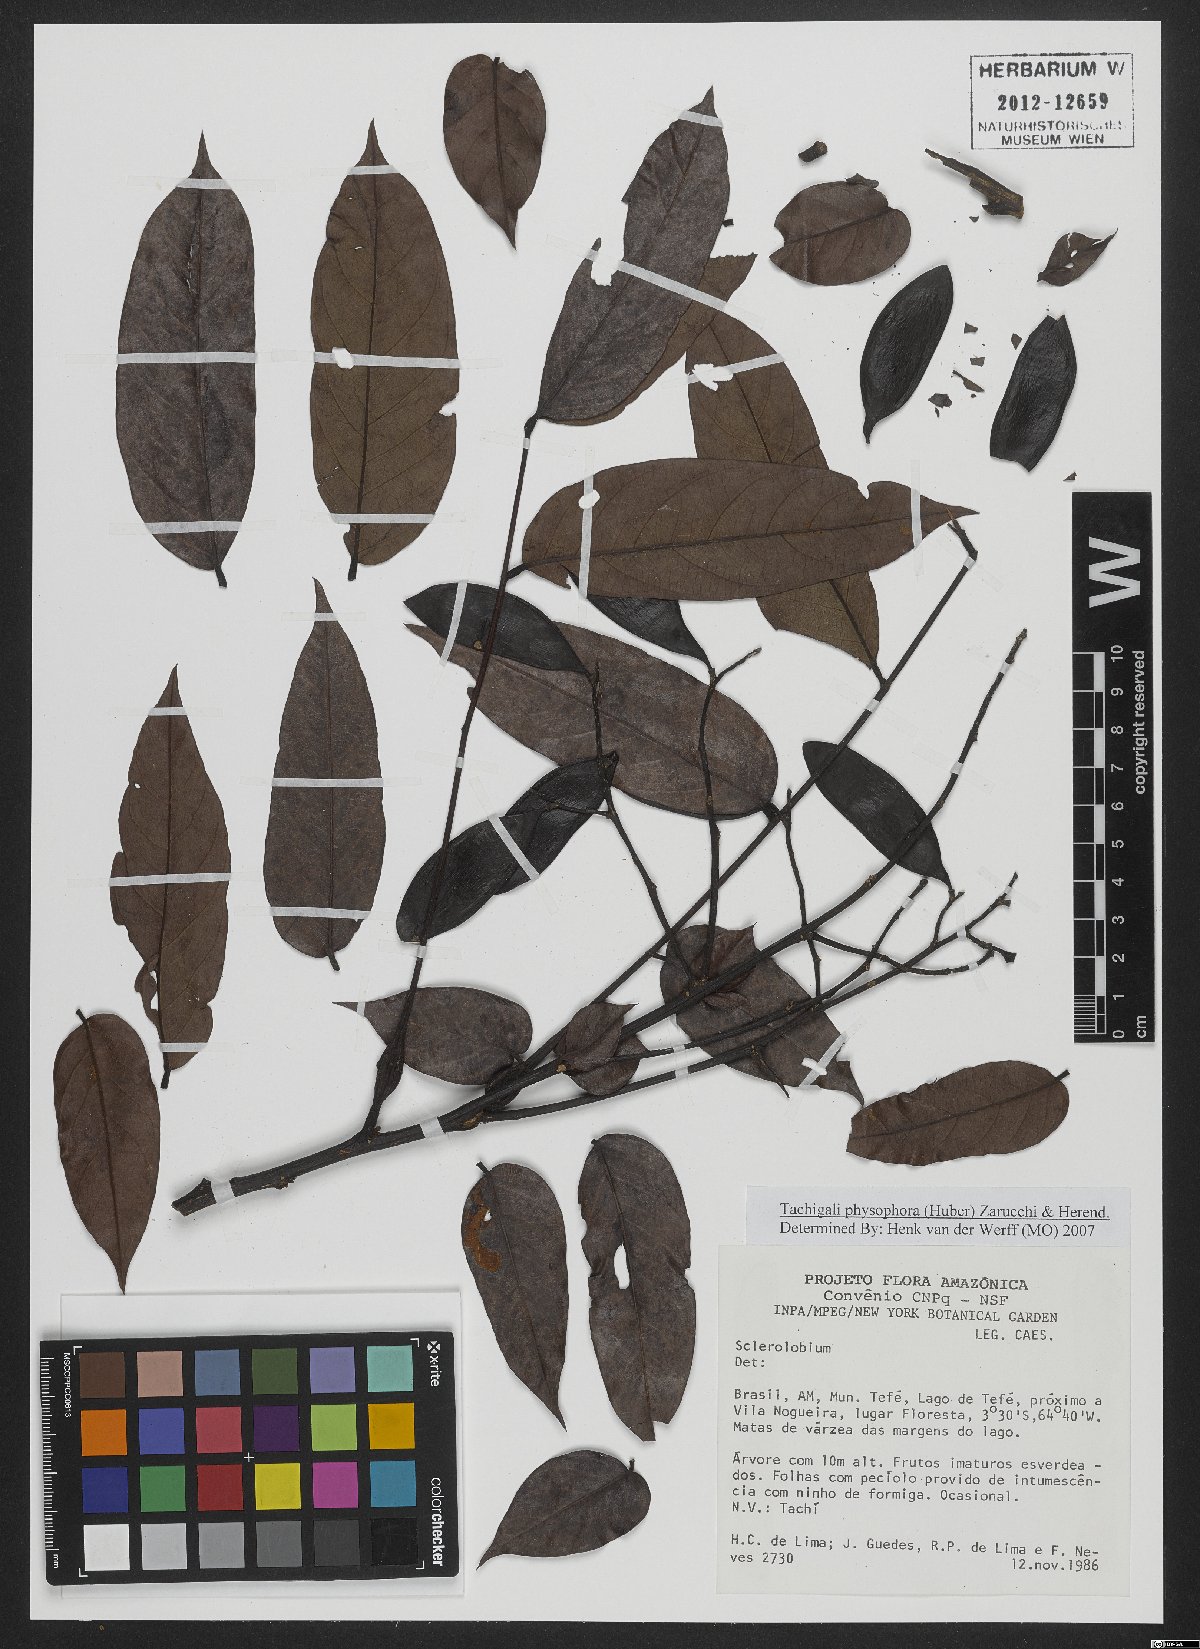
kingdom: Plantae
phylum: Tracheophyta
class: Magnoliopsida
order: Fabales
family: Fabaceae
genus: Tachigali
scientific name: Tachigali physophora
